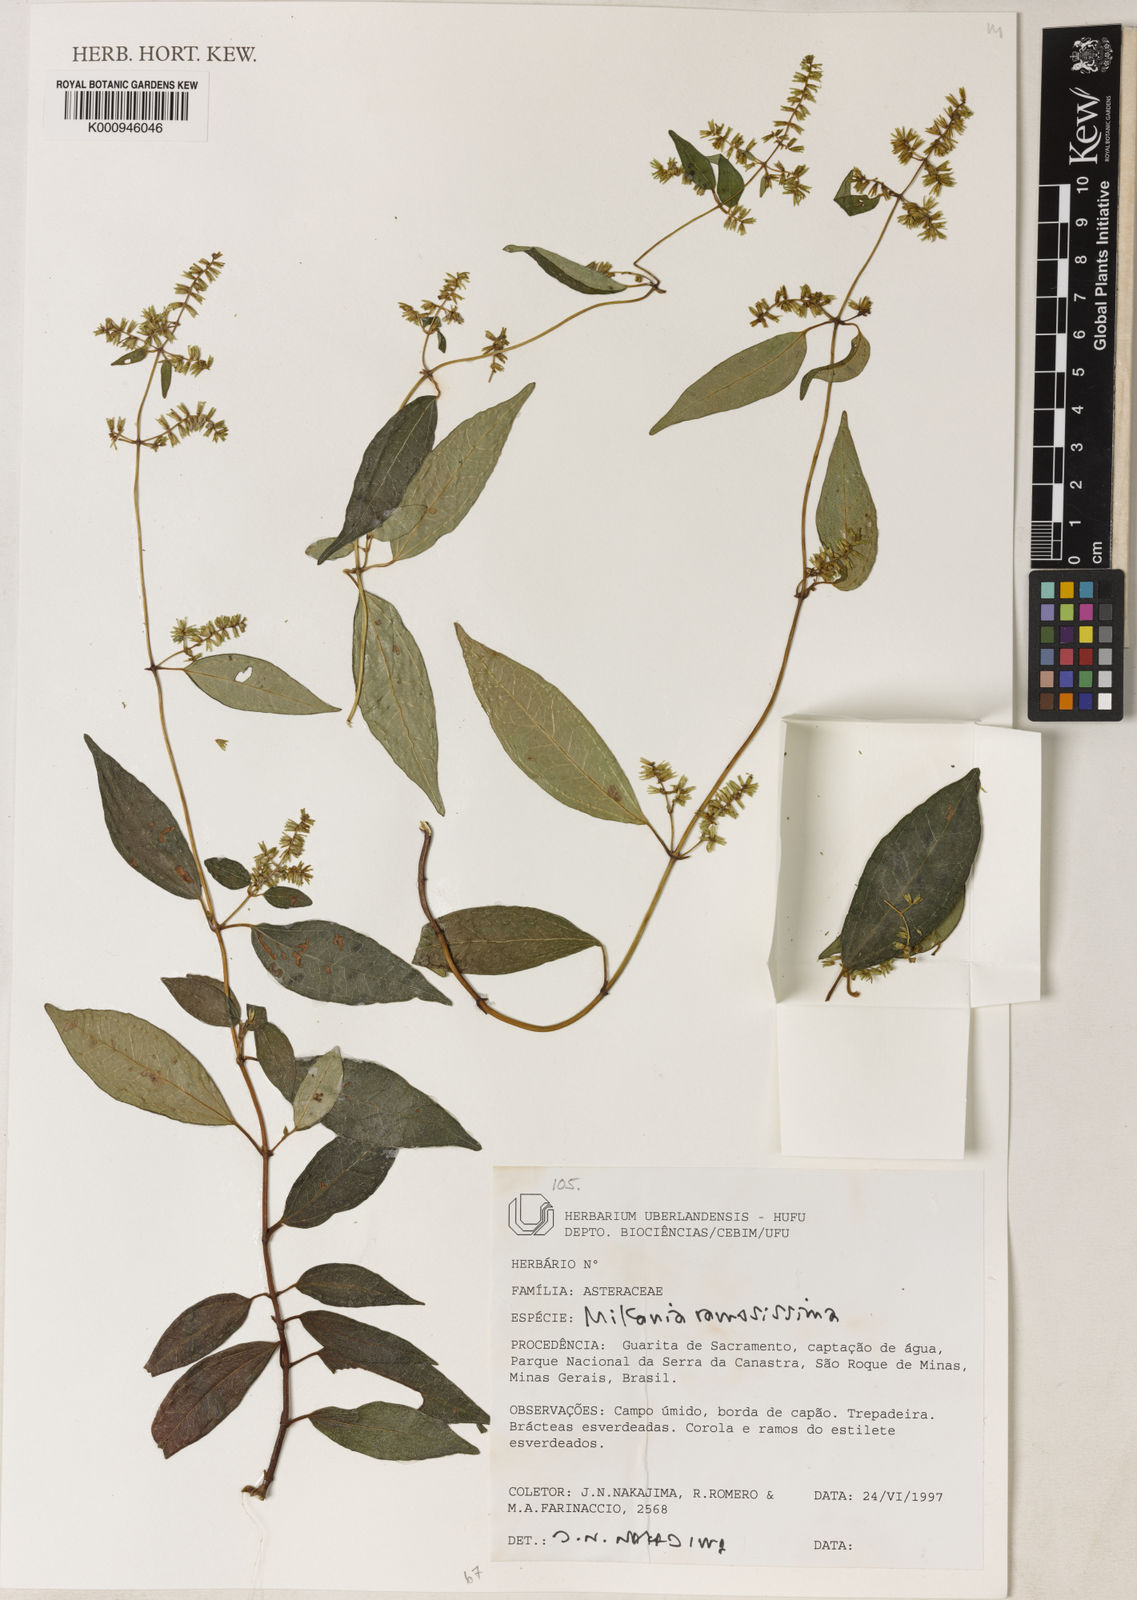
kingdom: Plantae
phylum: Tracheophyta
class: Magnoliopsida
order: Asterales
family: Asteraceae
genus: Mikania
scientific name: Mikania ramosissima
